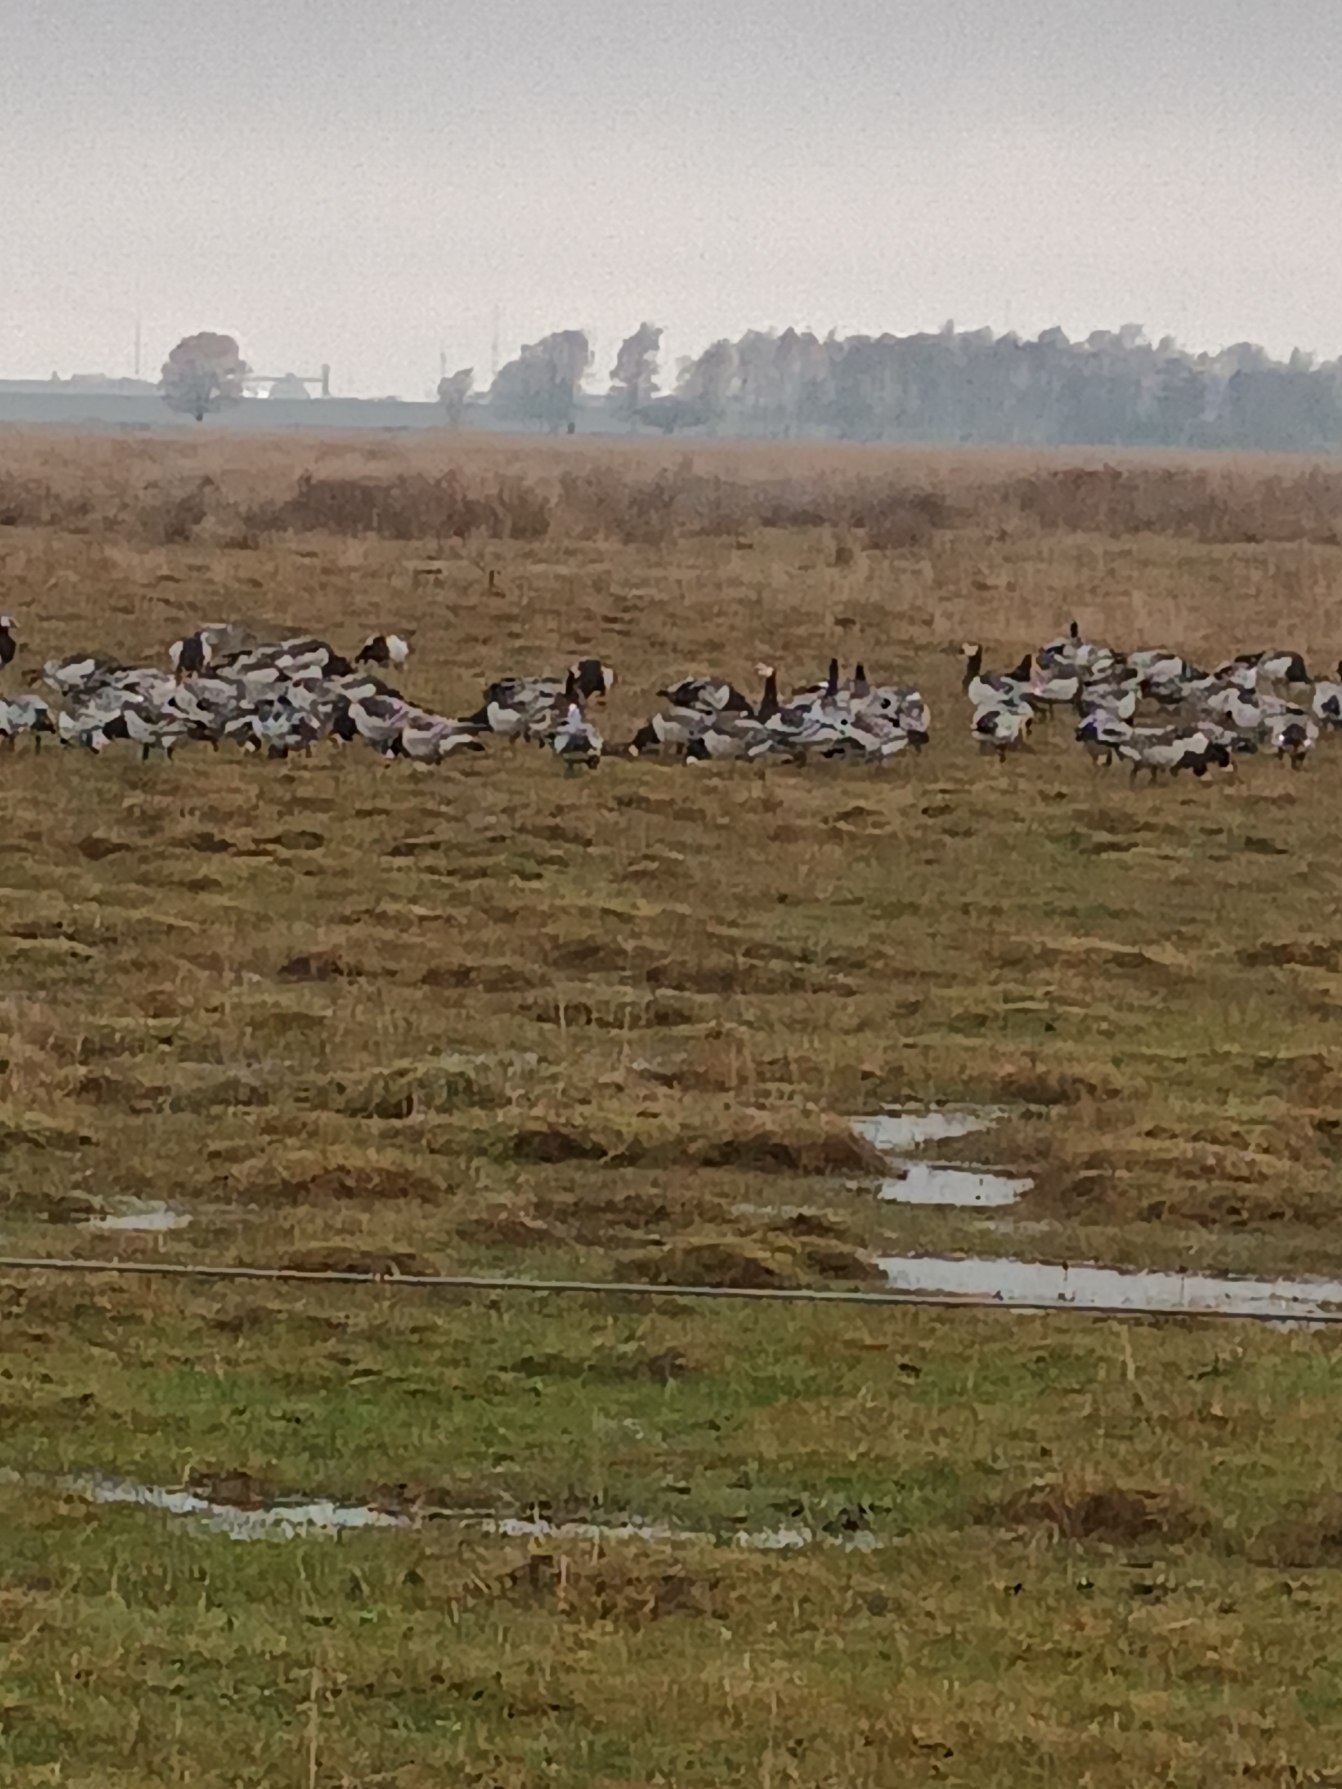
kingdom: Animalia
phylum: Chordata
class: Aves
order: Anseriformes
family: Anatidae
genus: Branta
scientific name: Branta leucopsis
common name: Bramgås
